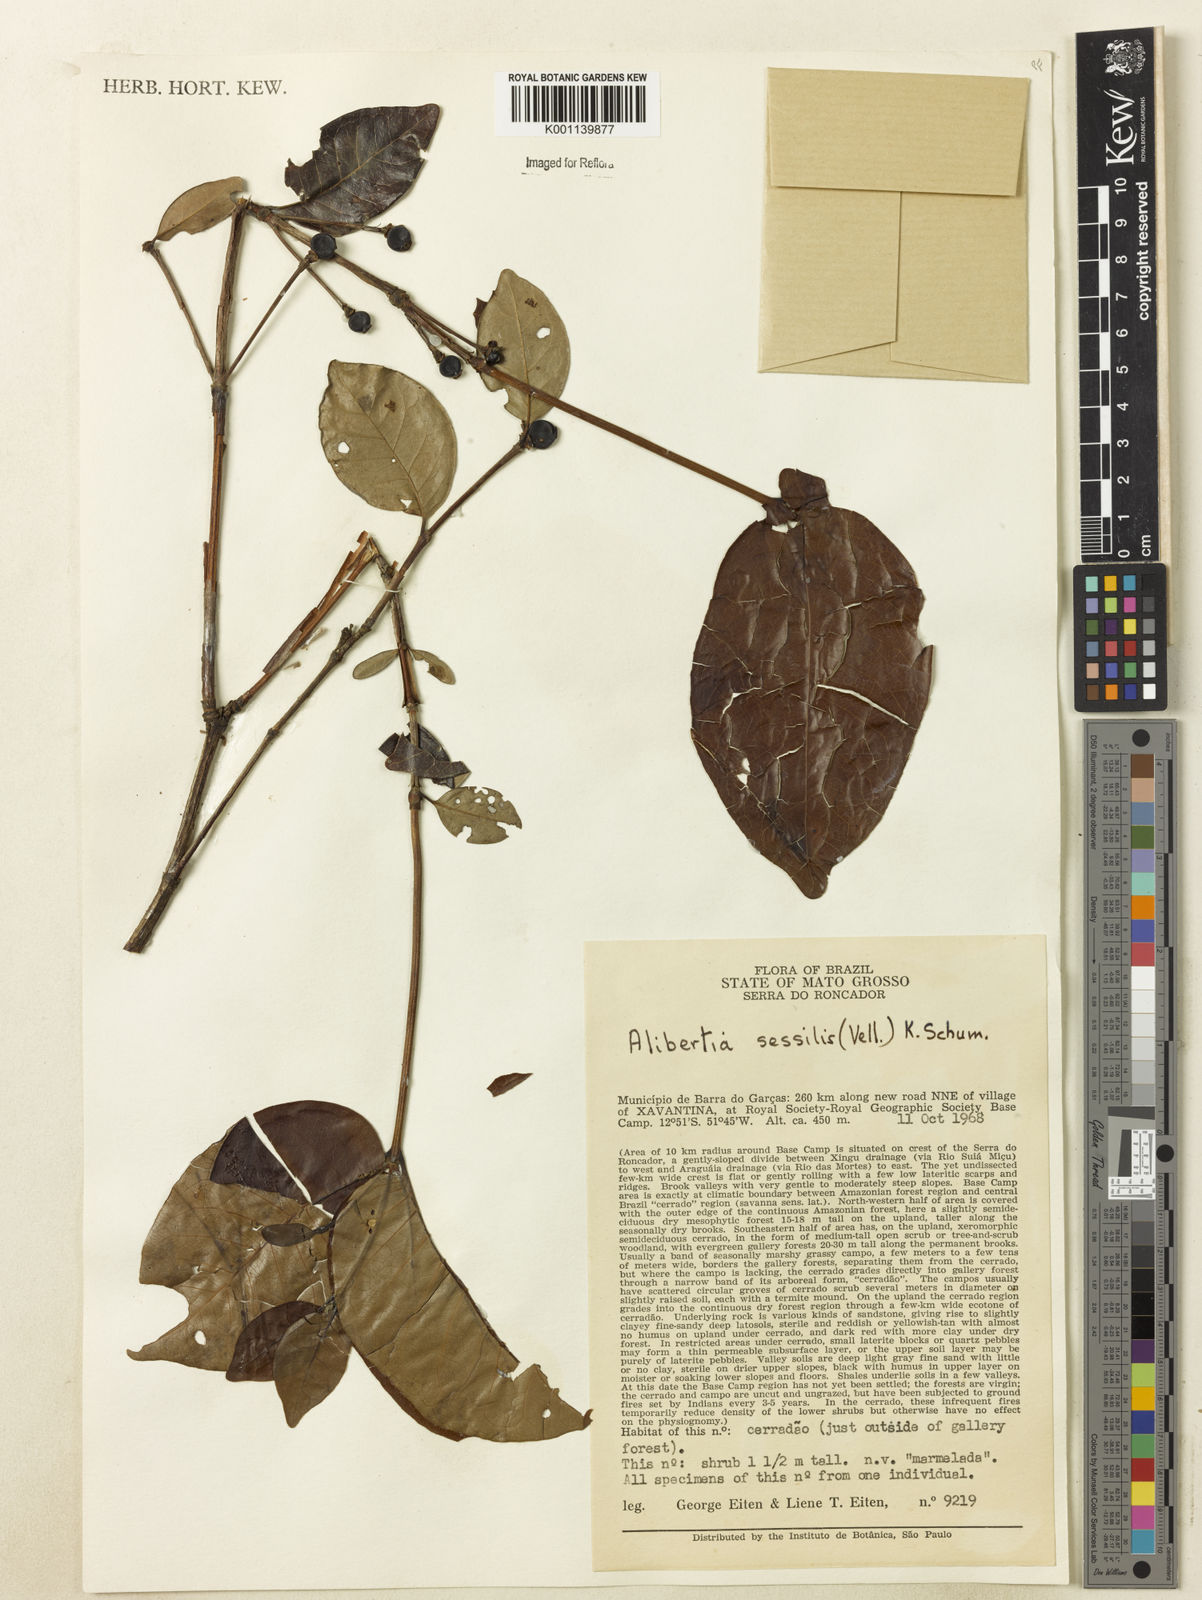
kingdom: Plantae
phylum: Tracheophyta
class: Magnoliopsida
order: Gentianales
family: Rubiaceae
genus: Cordiera
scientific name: Cordiera obtusa
